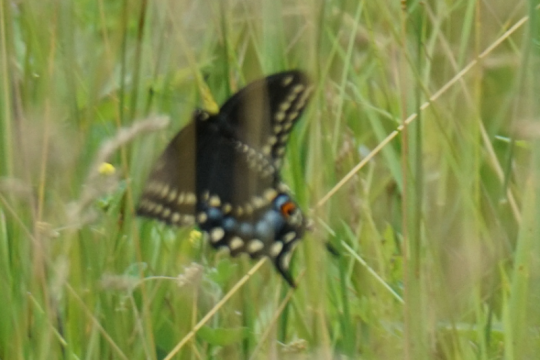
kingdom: Animalia
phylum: Arthropoda
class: Insecta
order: Lepidoptera
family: Papilionidae
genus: Papilio
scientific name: Papilio polyxenes
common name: Black Swallowtail
